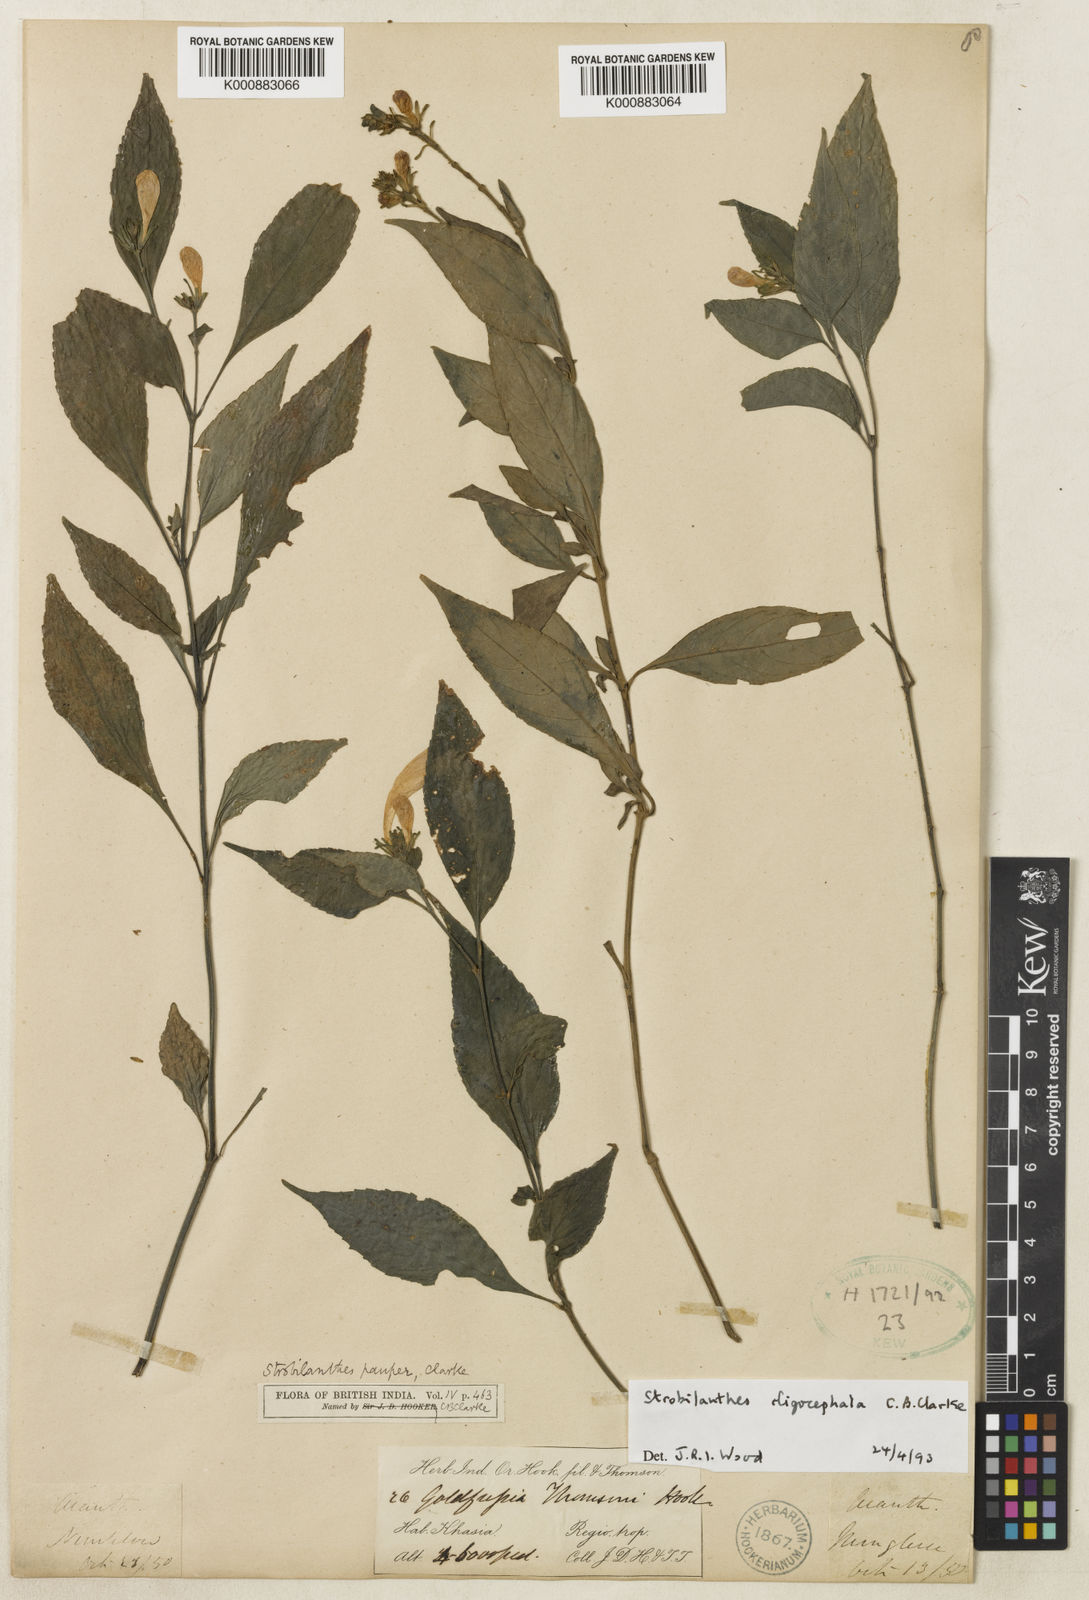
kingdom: Plantae
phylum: Tracheophyta
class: Magnoliopsida
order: Lamiales
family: Acanthaceae
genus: Strobilanthes
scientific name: Strobilanthes oligocephala
